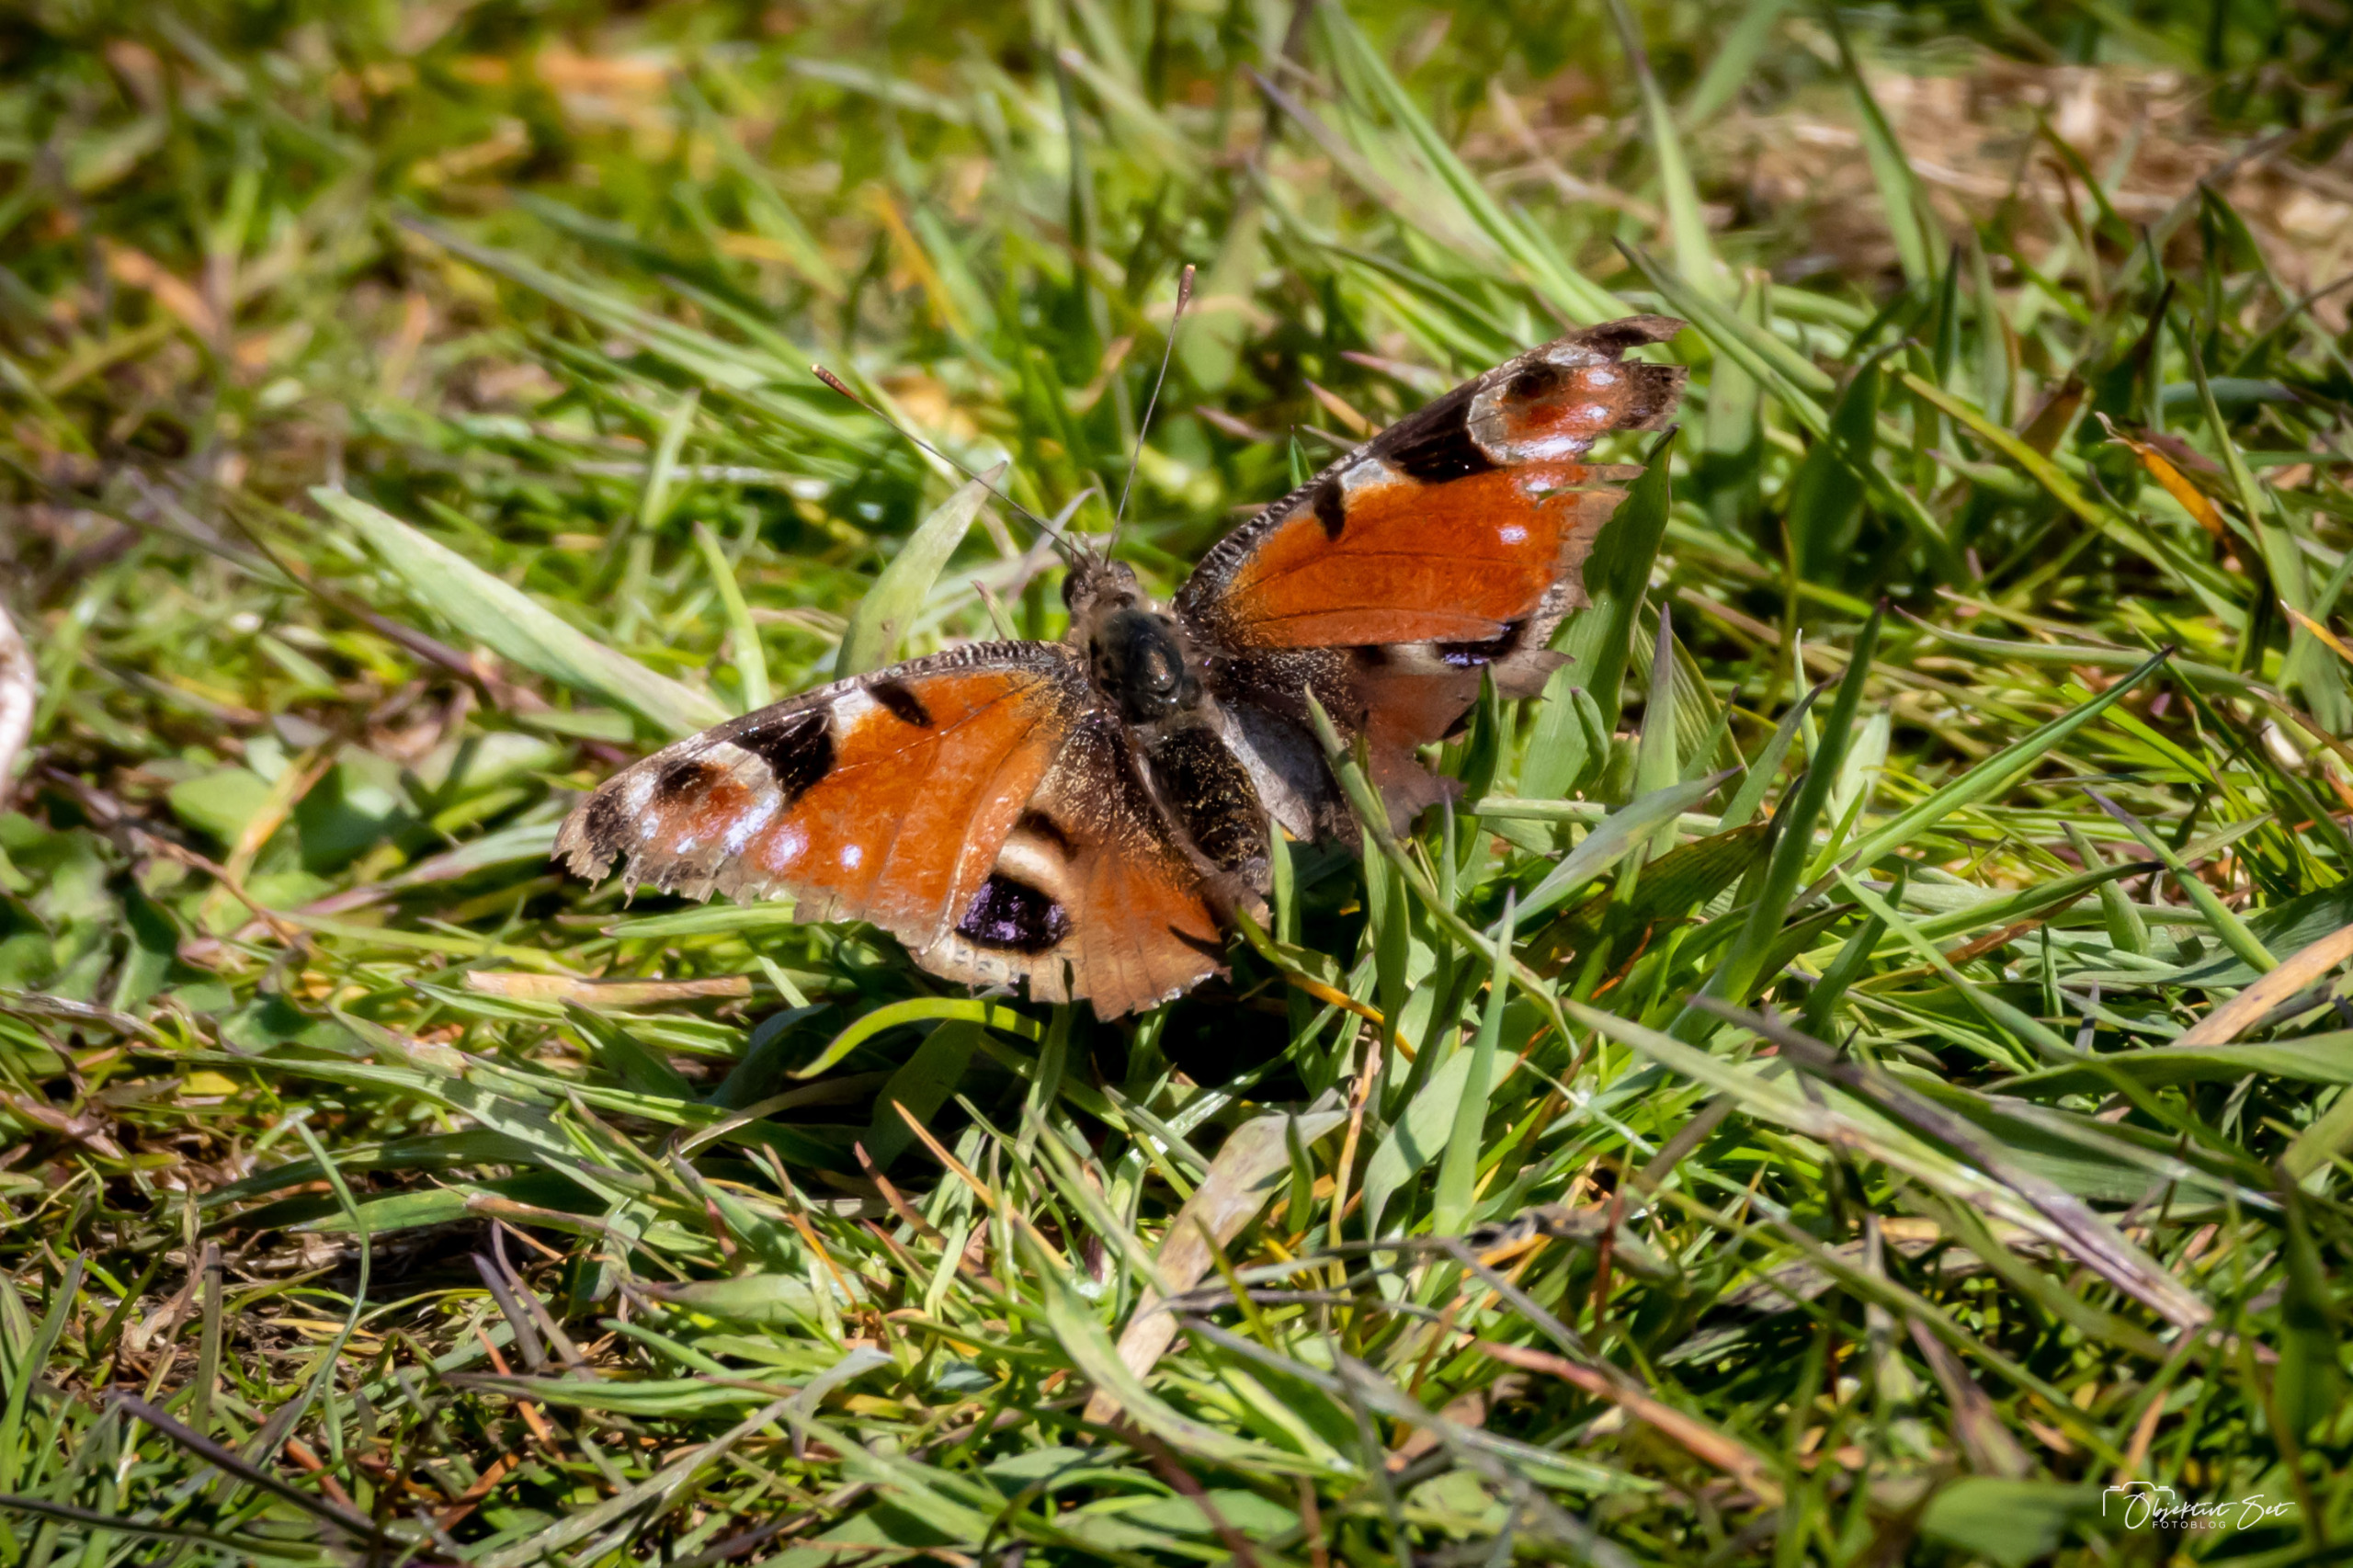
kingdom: Animalia
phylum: Arthropoda
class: Insecta
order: Lepidoptera
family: Nymphalidae
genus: Aglais
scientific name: Aglais io
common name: Dagpåfugleøje
